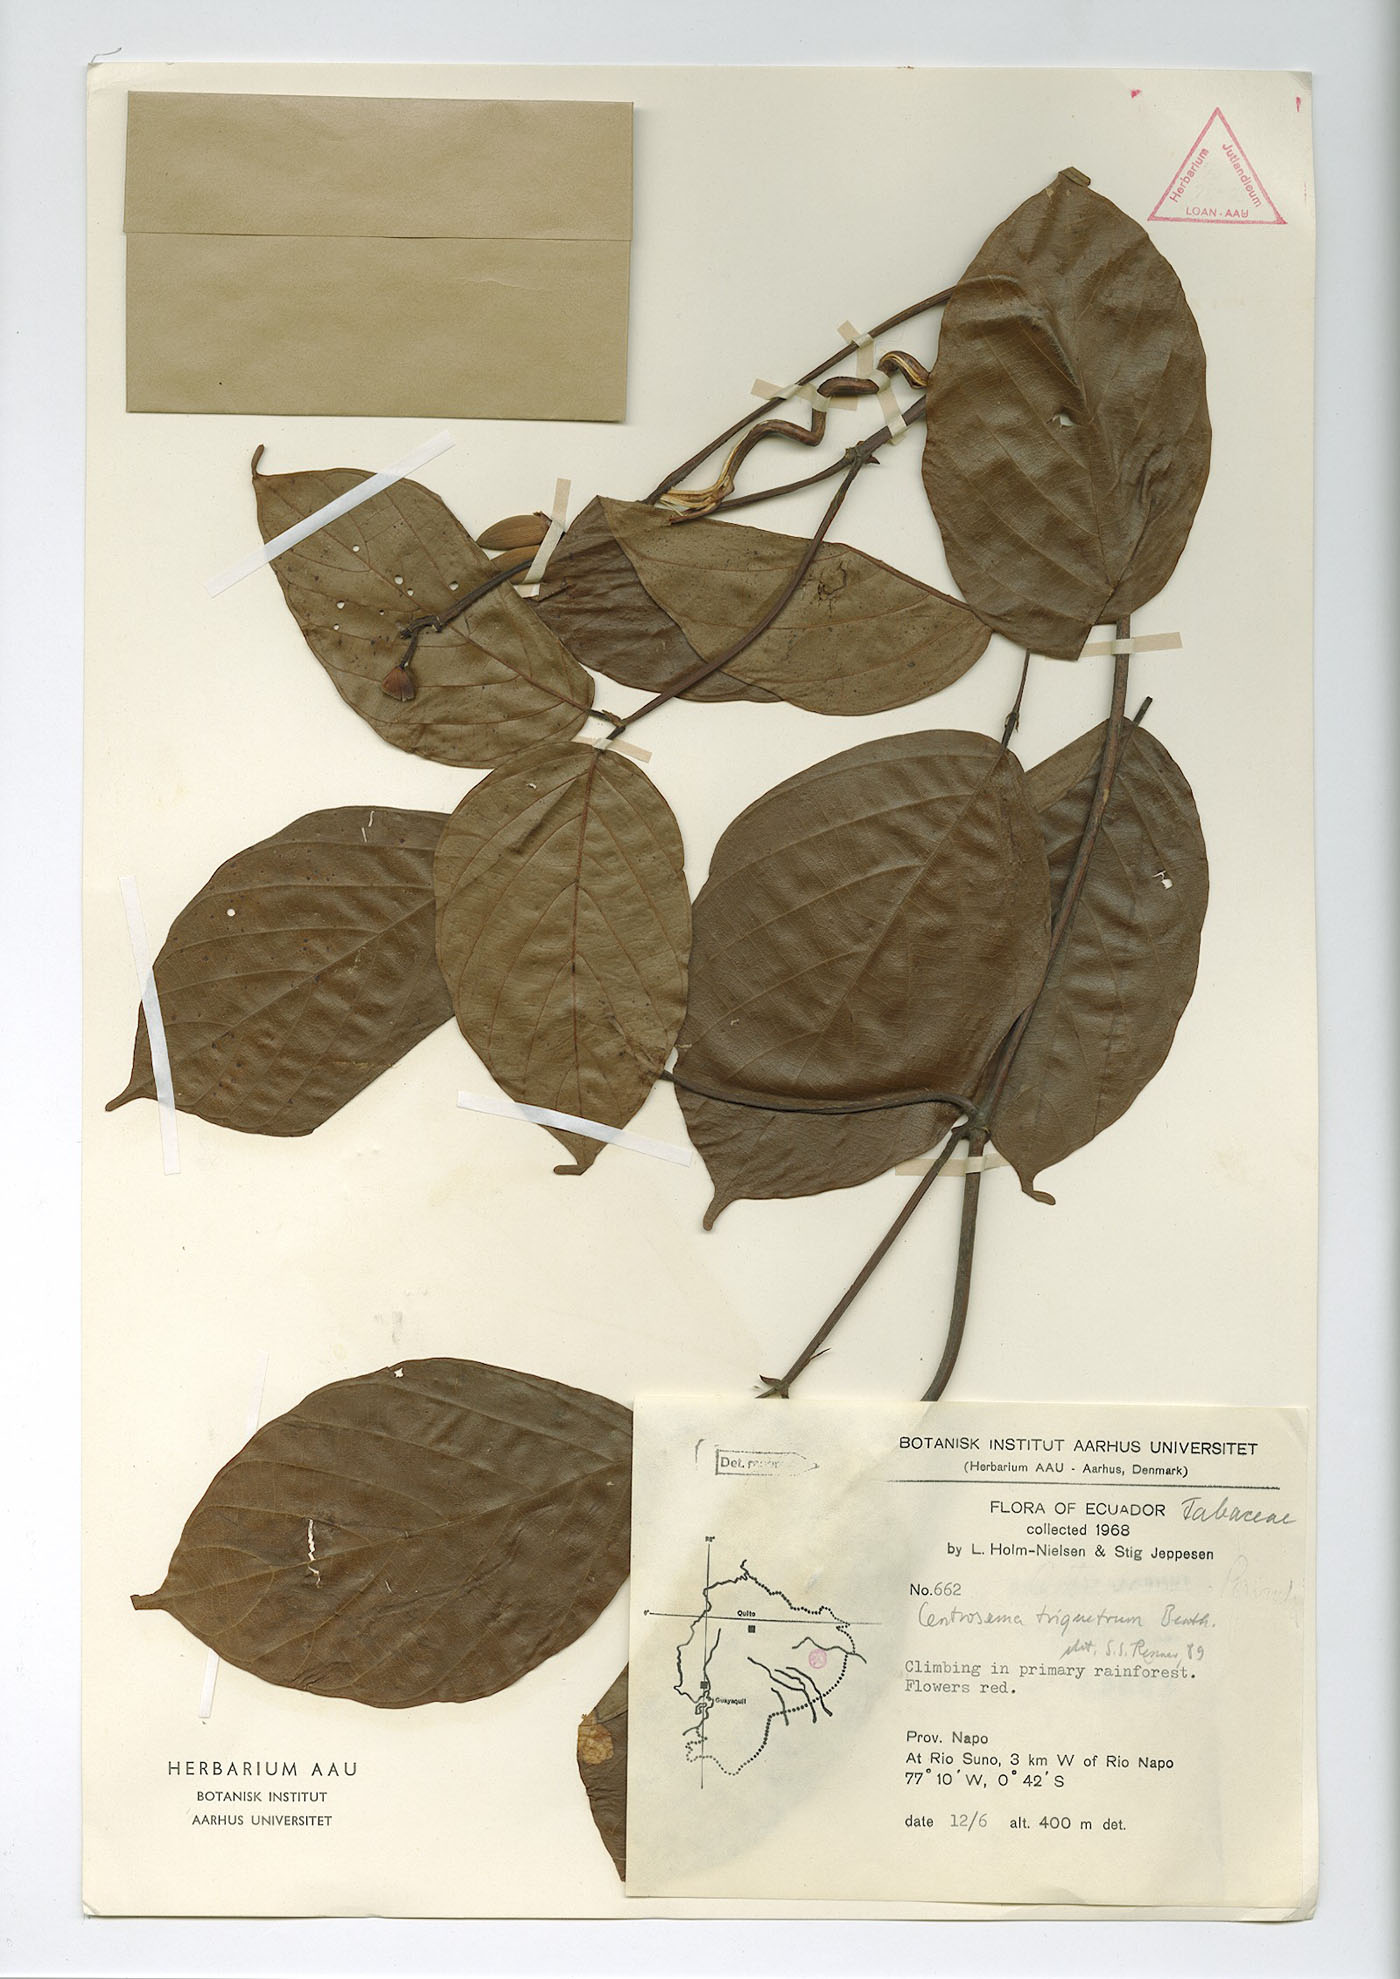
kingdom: Plantae
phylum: Tracheophyta
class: Magnoliopsida
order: Fabales
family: Fabaceae
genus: Centrosema
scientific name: Centrosema triquetrum
